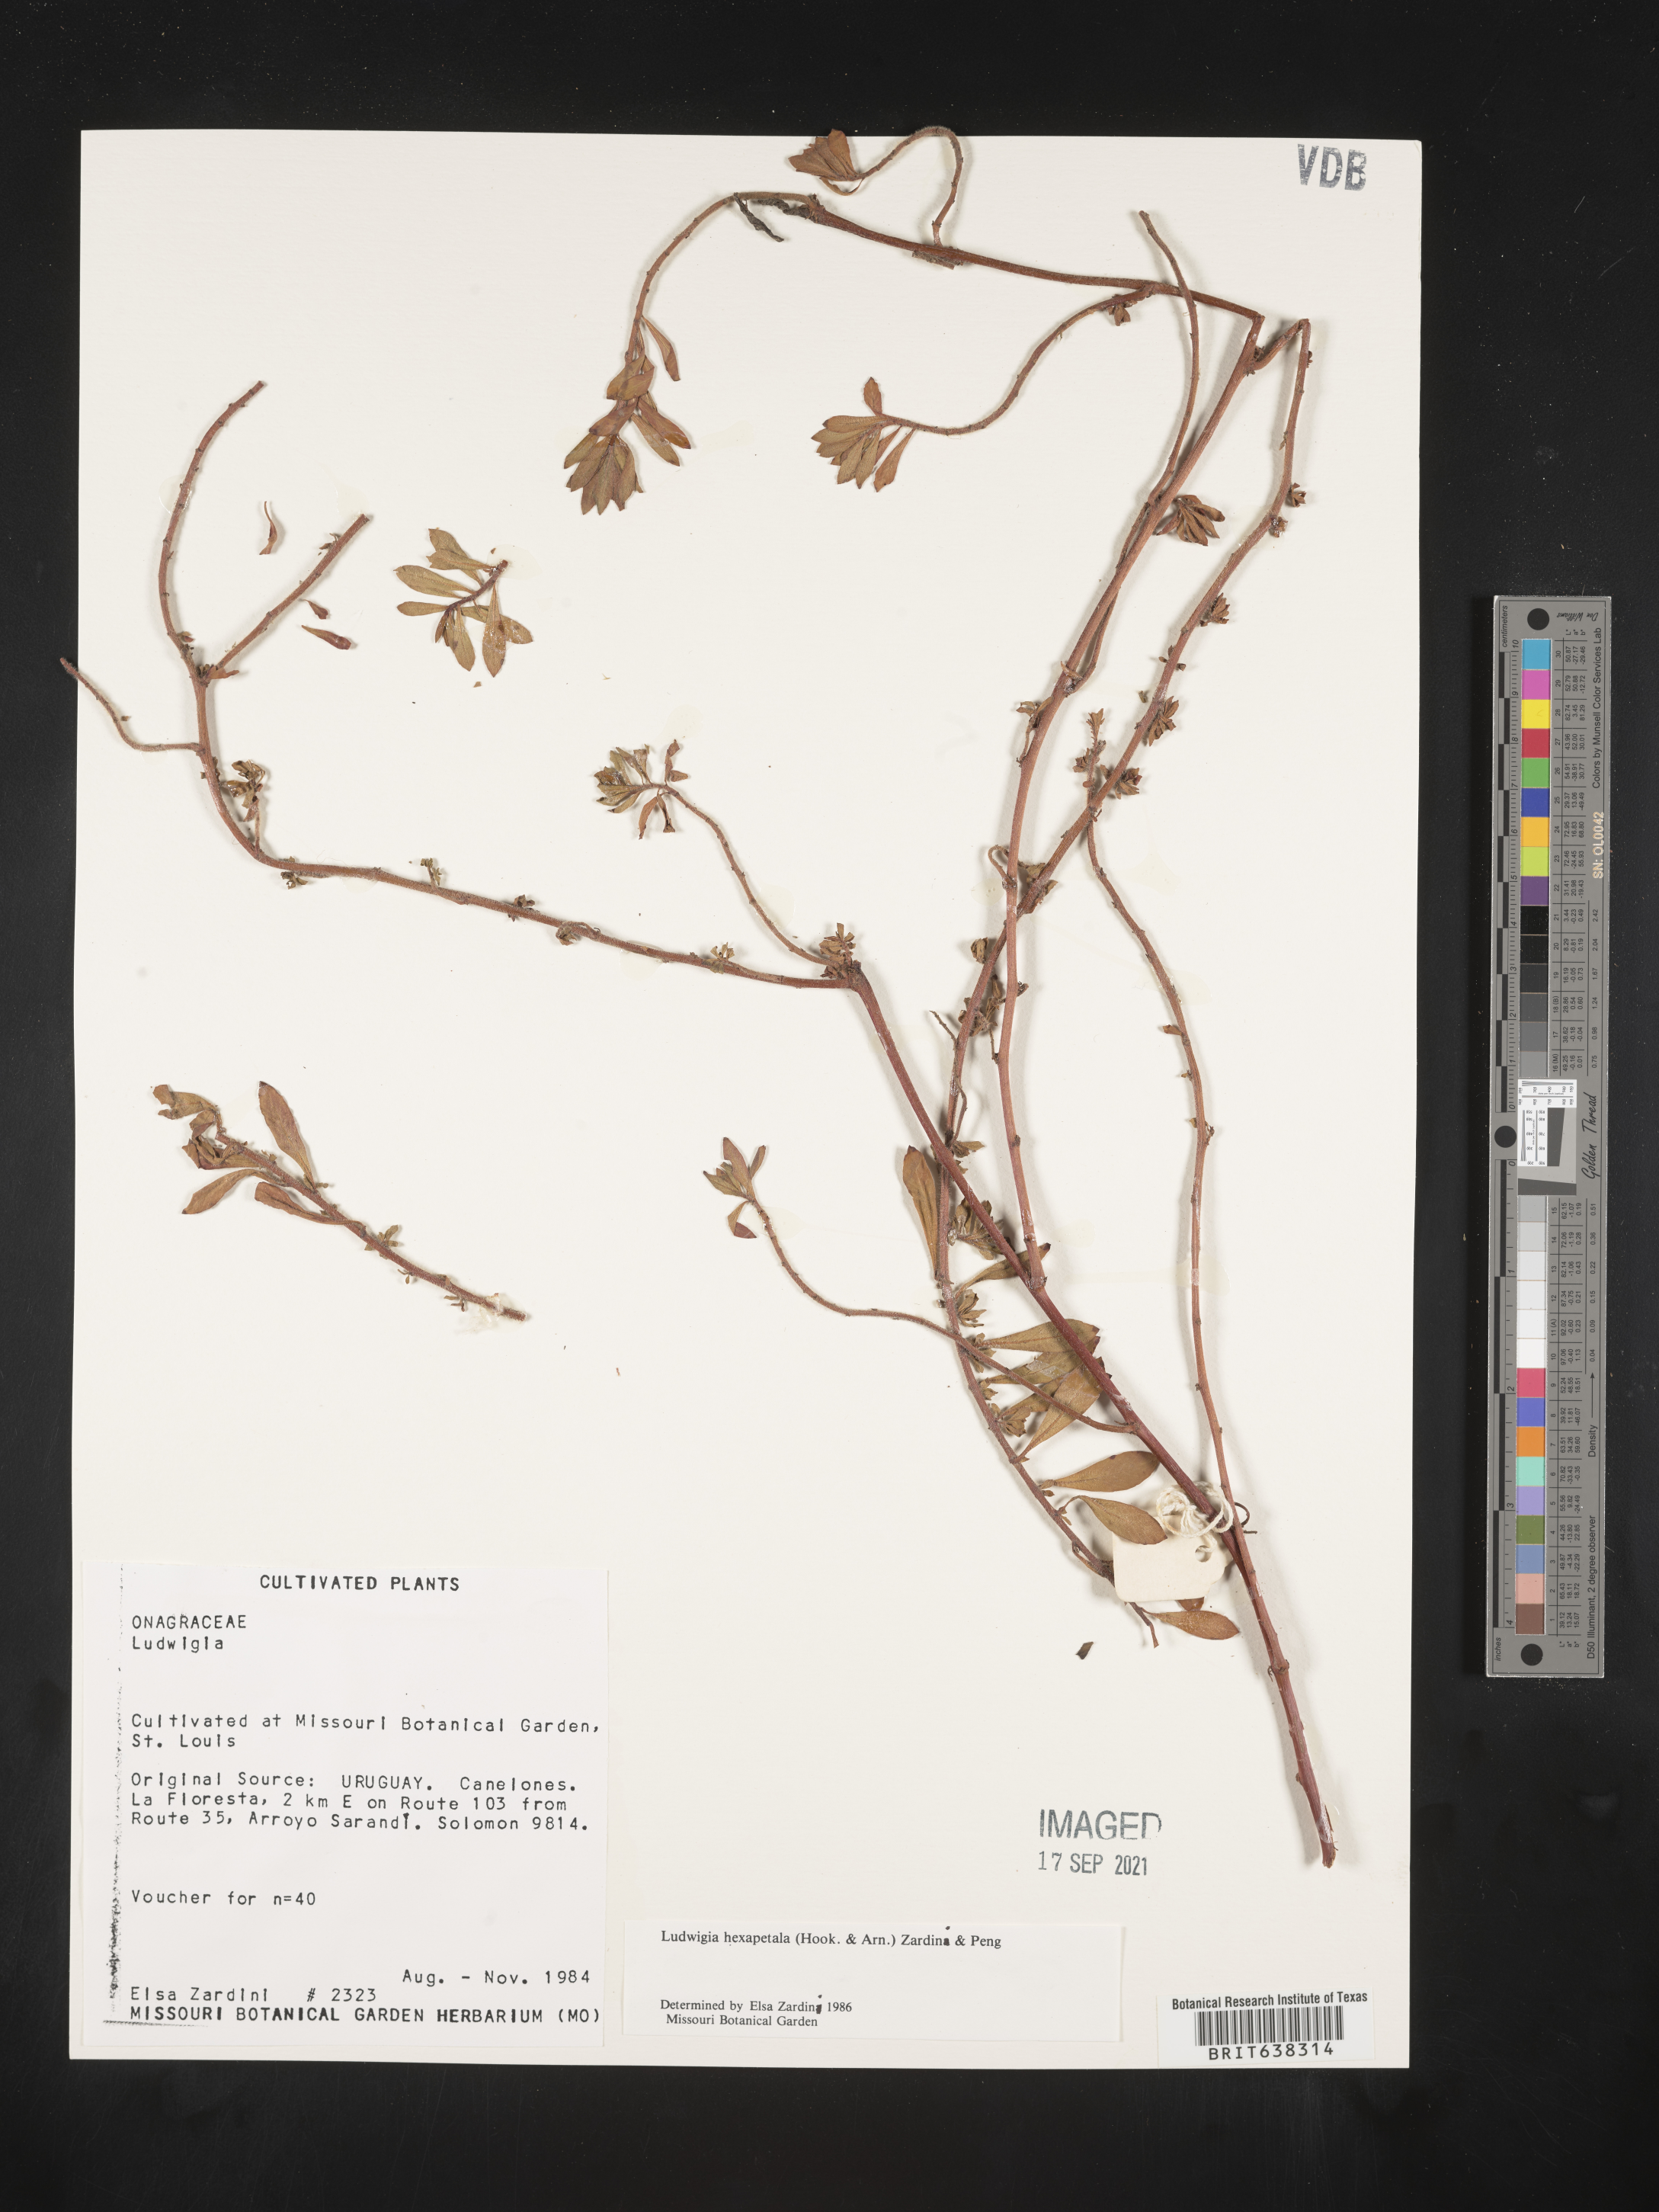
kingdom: Plantae
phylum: Tracheophyta
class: Magnoliopsida
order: Myrtales
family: Onagraceae
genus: Ludwigia
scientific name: Ludwigia
